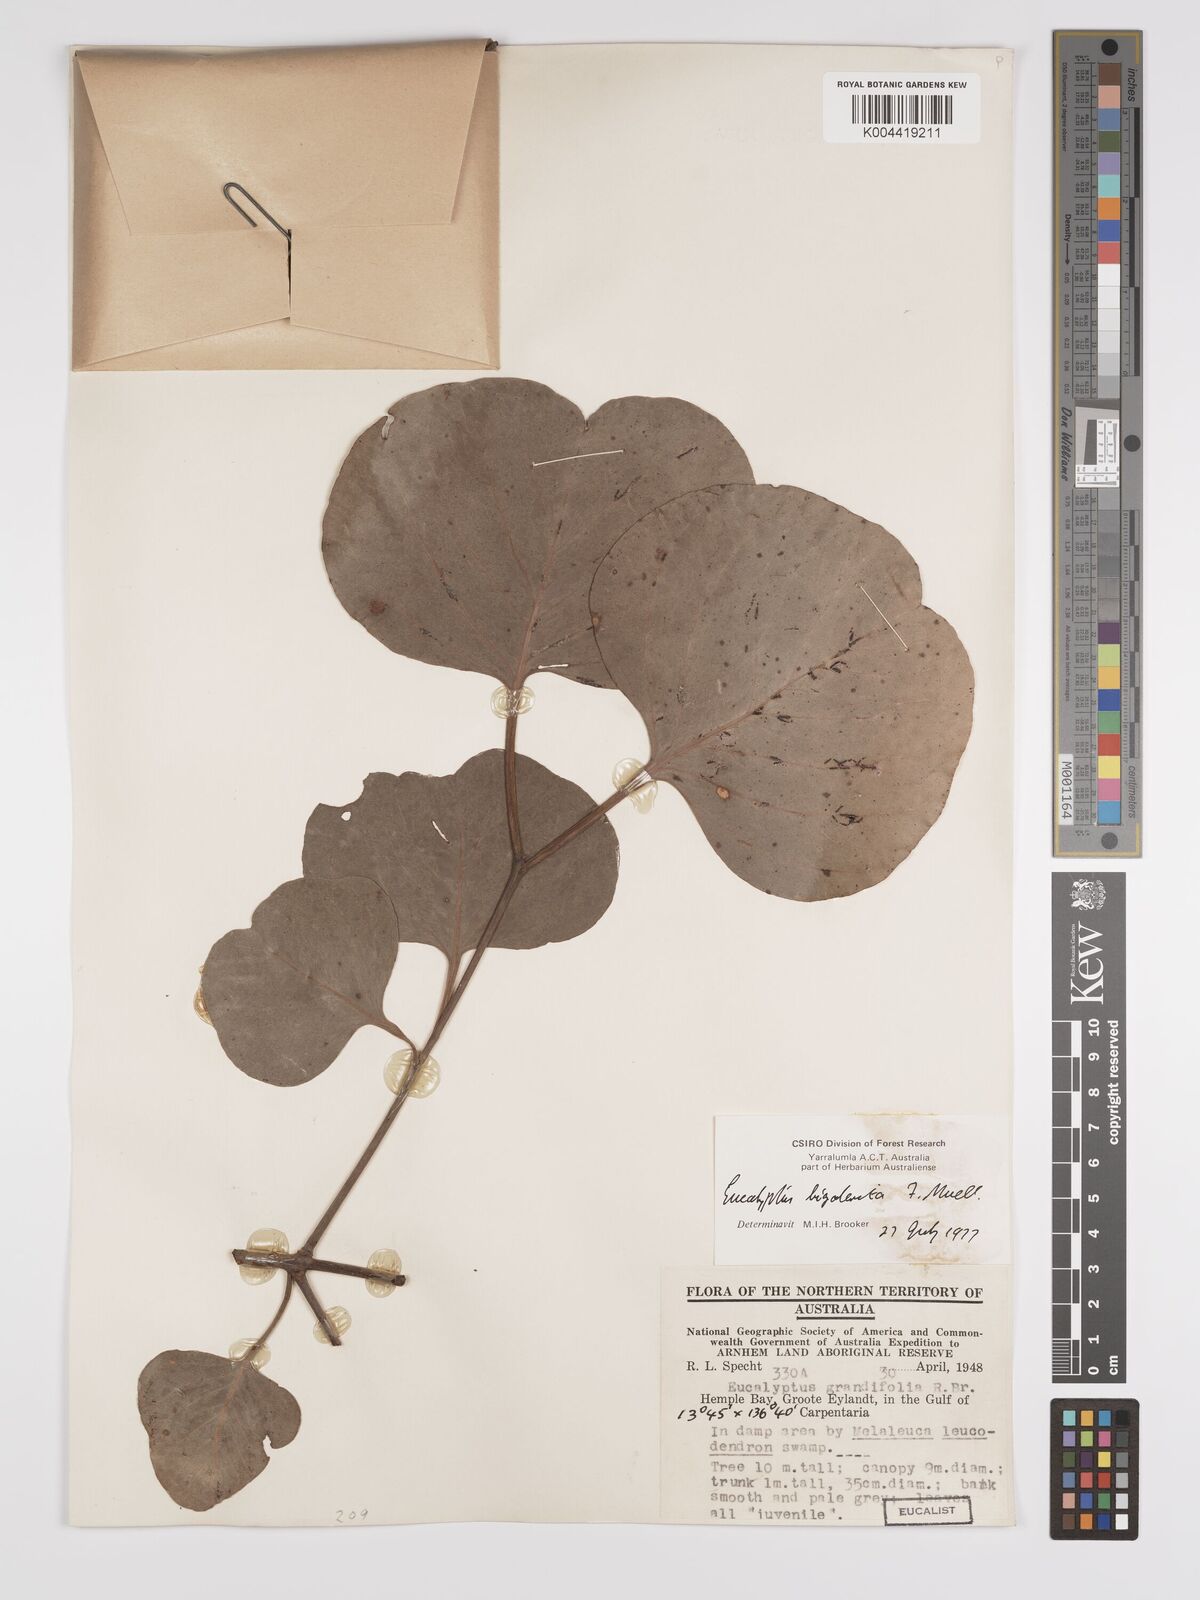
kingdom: Plantae
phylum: Tracheophyta
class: Magnoliopsida
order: Myrtales
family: Myrtaceae
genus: Eucalyptus
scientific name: Eucalyptus bigalerita
